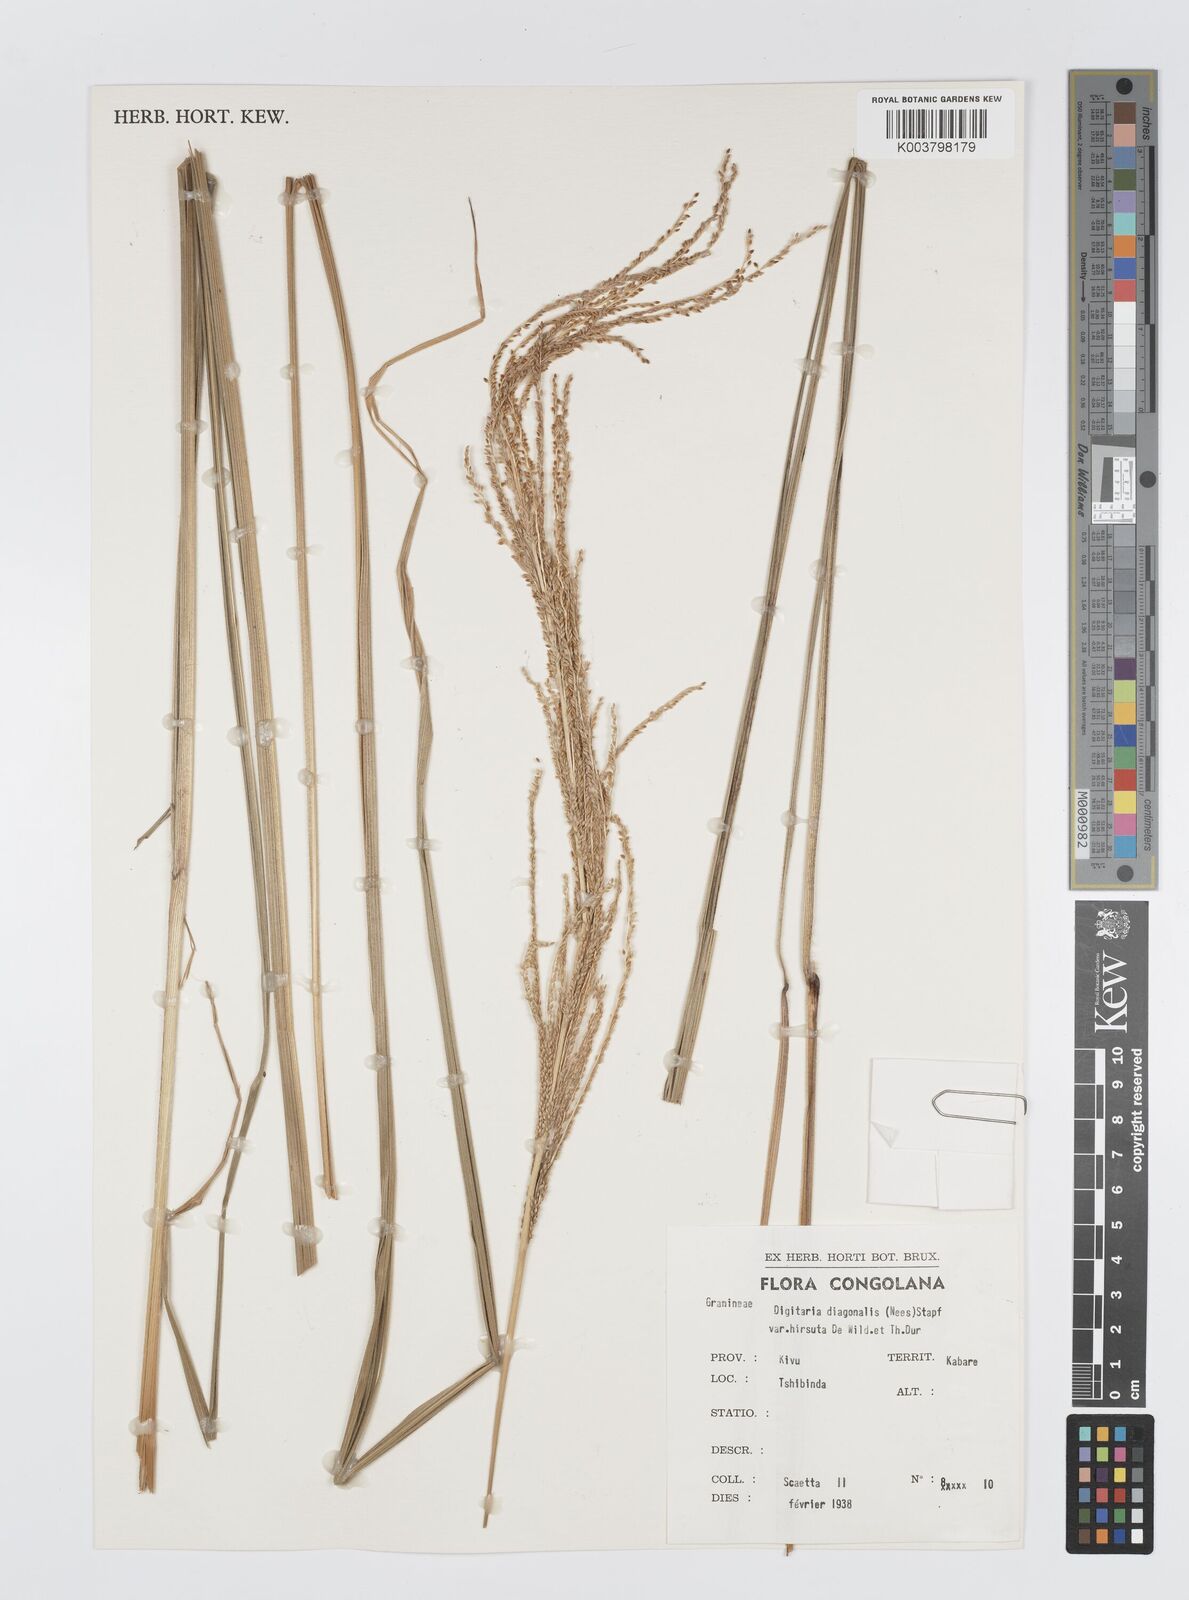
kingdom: Plantae
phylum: Tracheophyta
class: Liliopsida
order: Poales
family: Poaceae
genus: Digitaria
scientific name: Digitaria diagonalis
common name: Brown-seed finger grass
